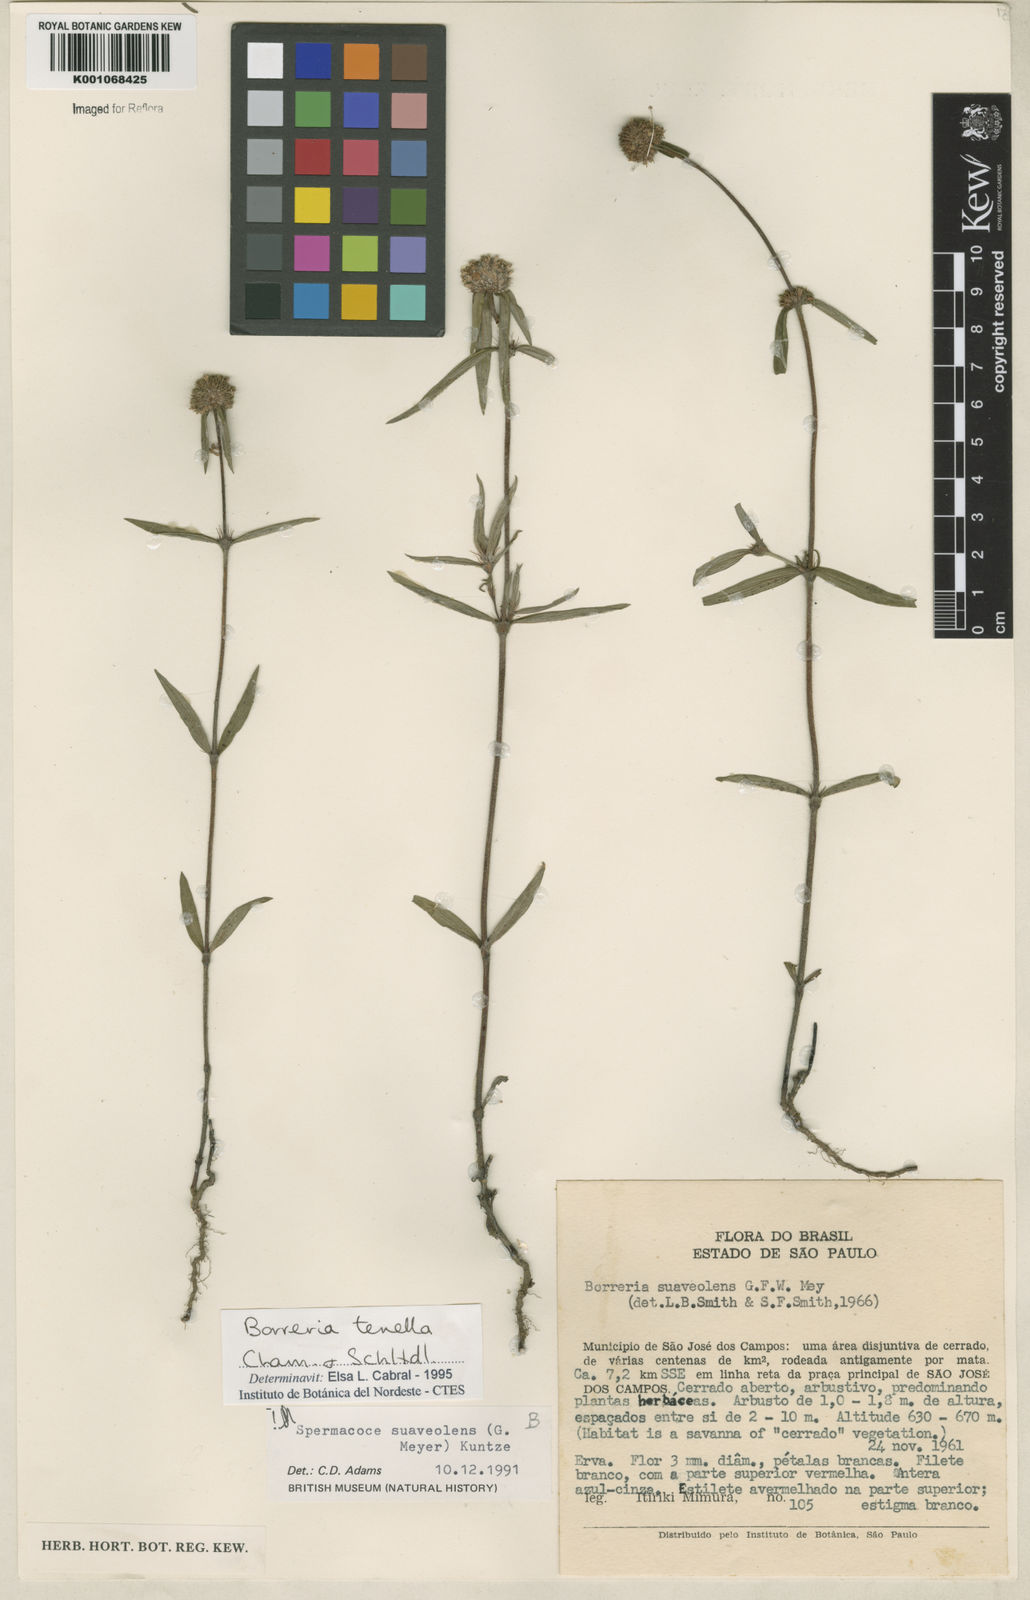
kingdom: Plantae
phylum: Tracheophyta
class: Magnoliopsida
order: Gentianales
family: Rubiaceae
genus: Spermacoce
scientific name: Spermacoce suaveolens
